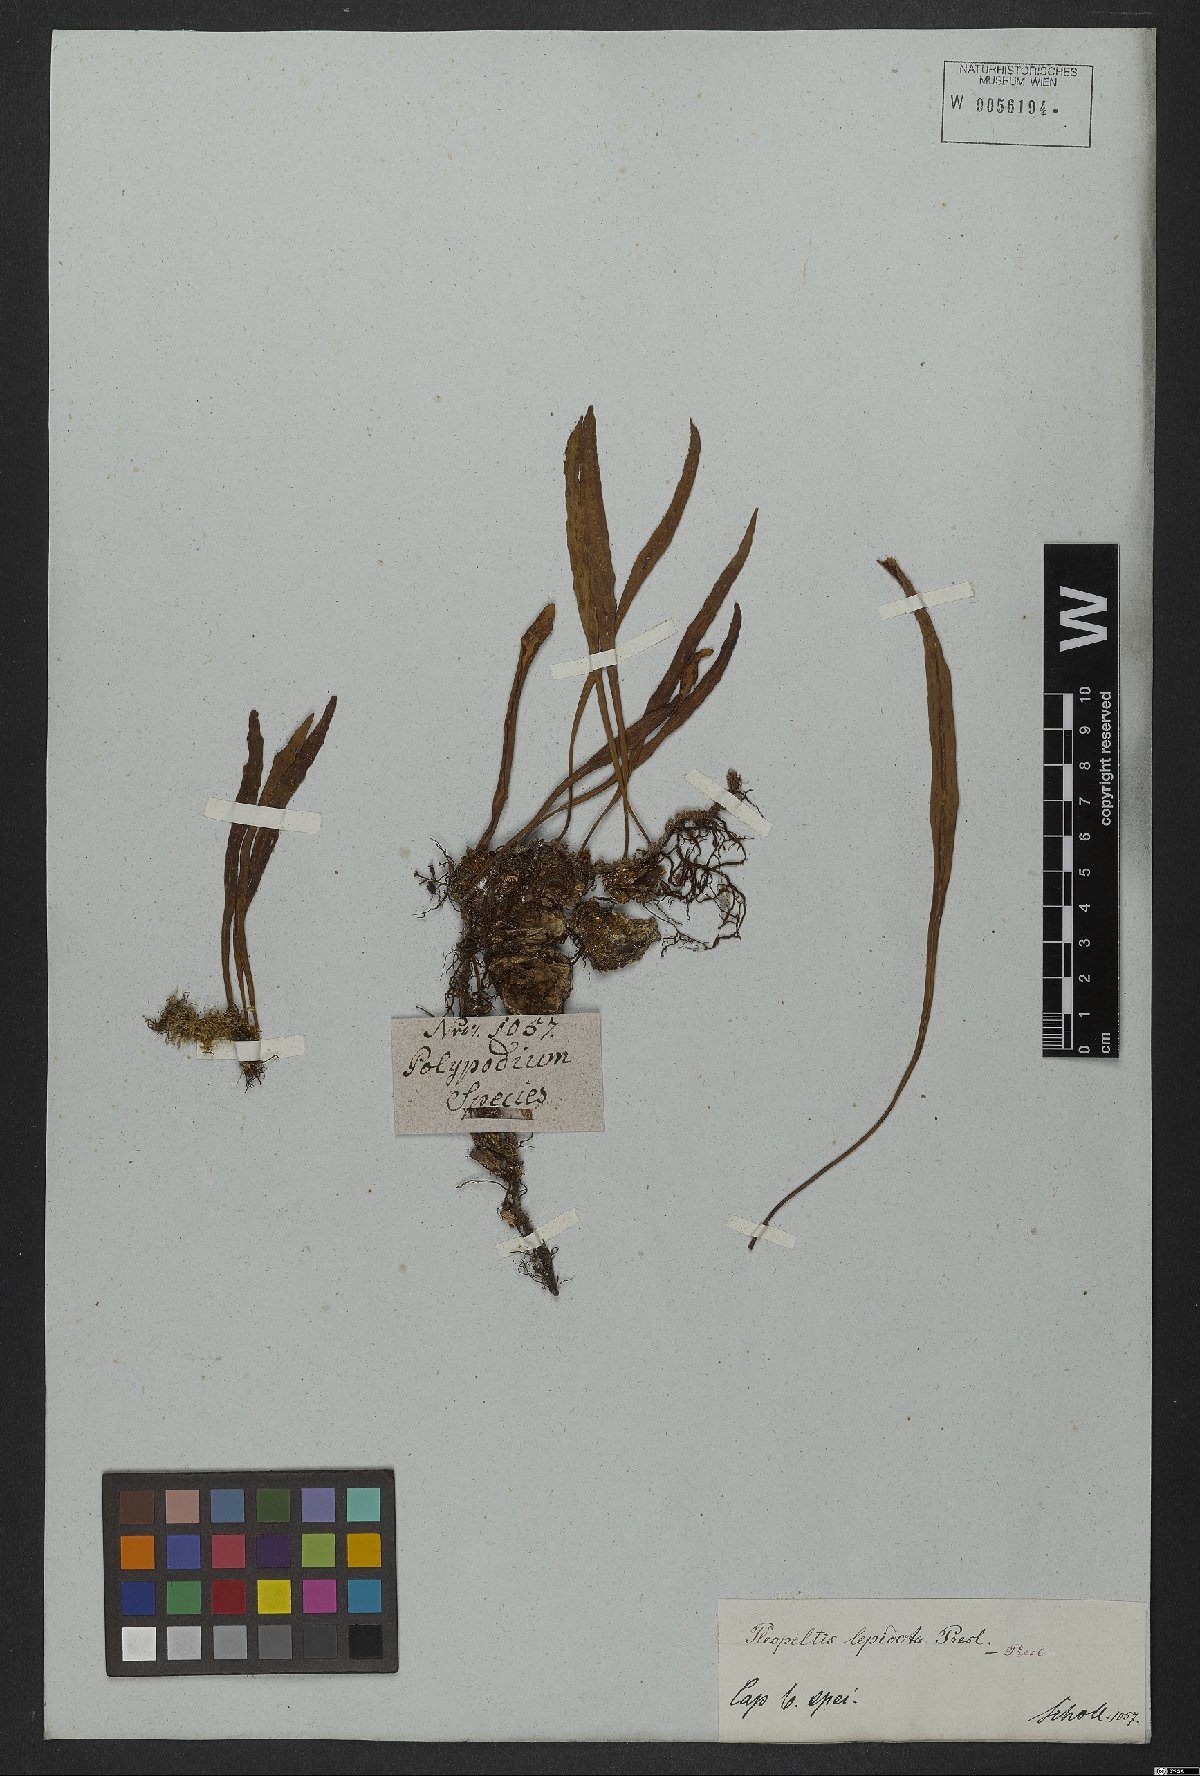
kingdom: Plantae
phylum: Tracheophyta
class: Polypodiopsida
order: Polypodiales
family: Polypodiaceae
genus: Pleopeltis
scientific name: Pleopeltis macrocarpa
